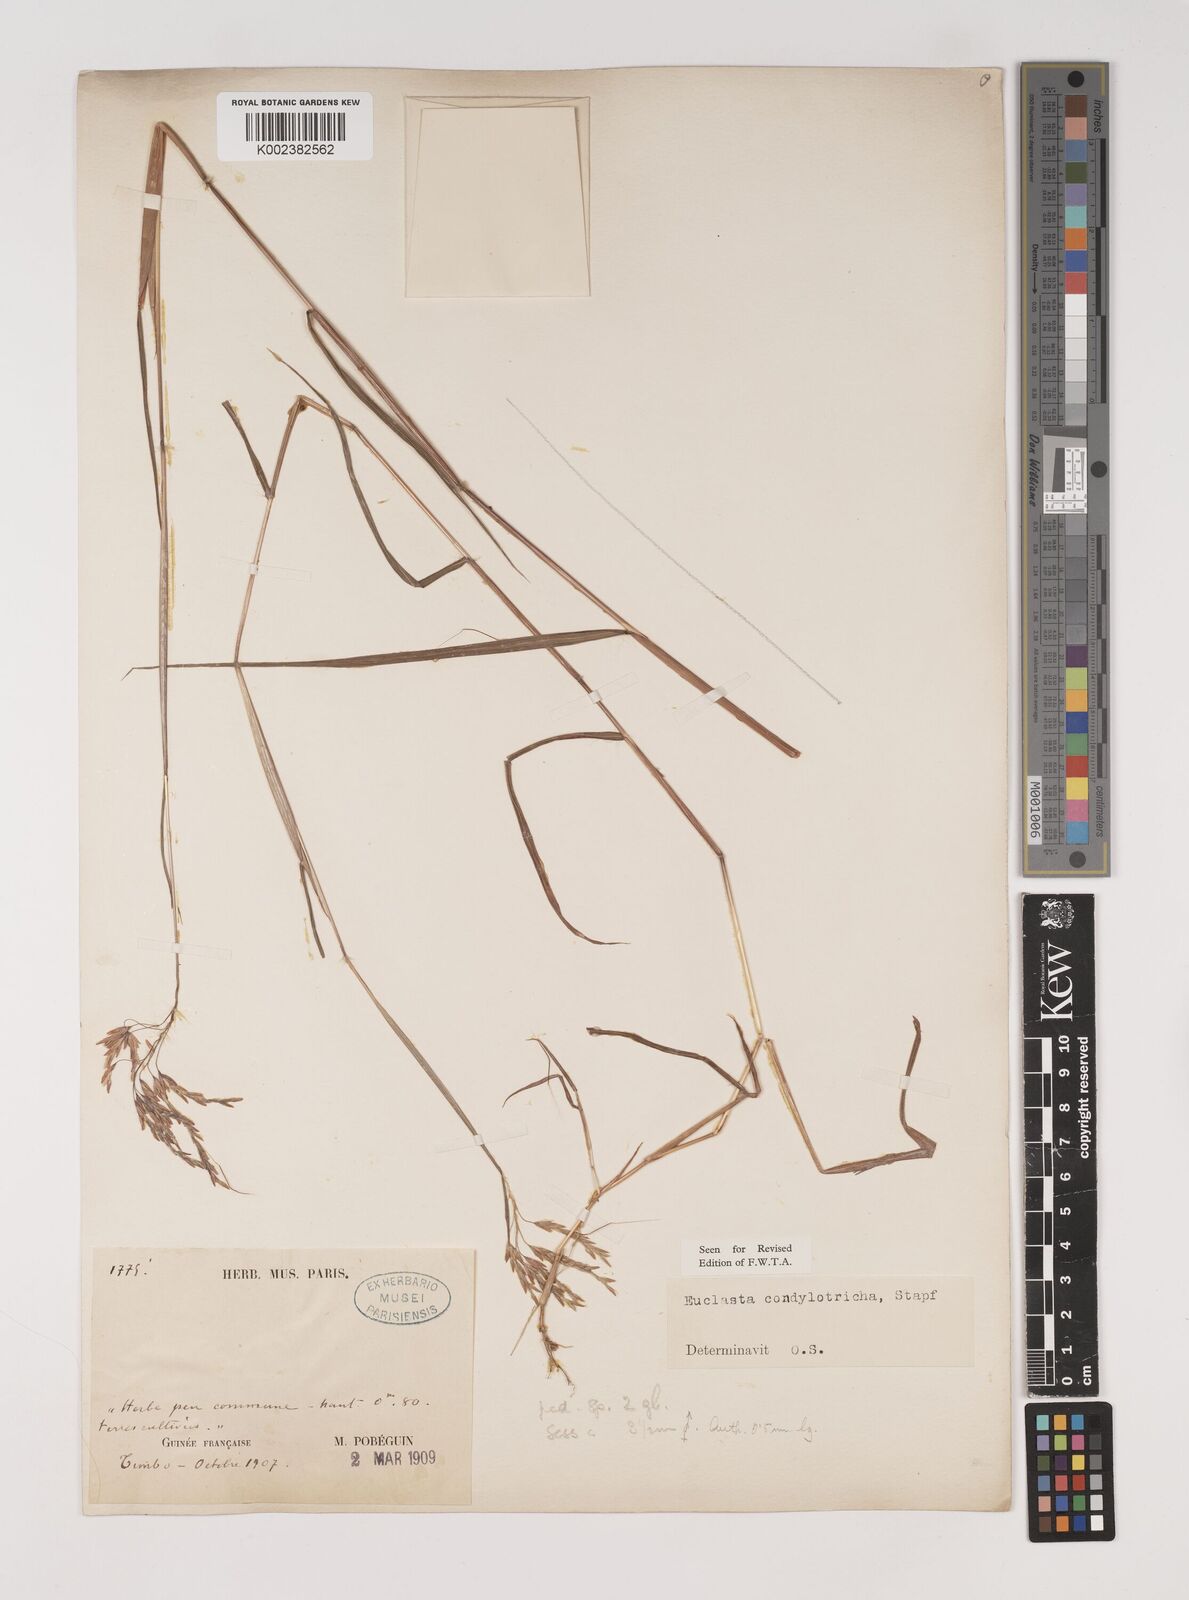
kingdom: Plantae
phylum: Tracheophyta
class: Liliopsida
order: Poales
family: Poaceae
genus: Euclasta
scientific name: Euclasta condylotricha
